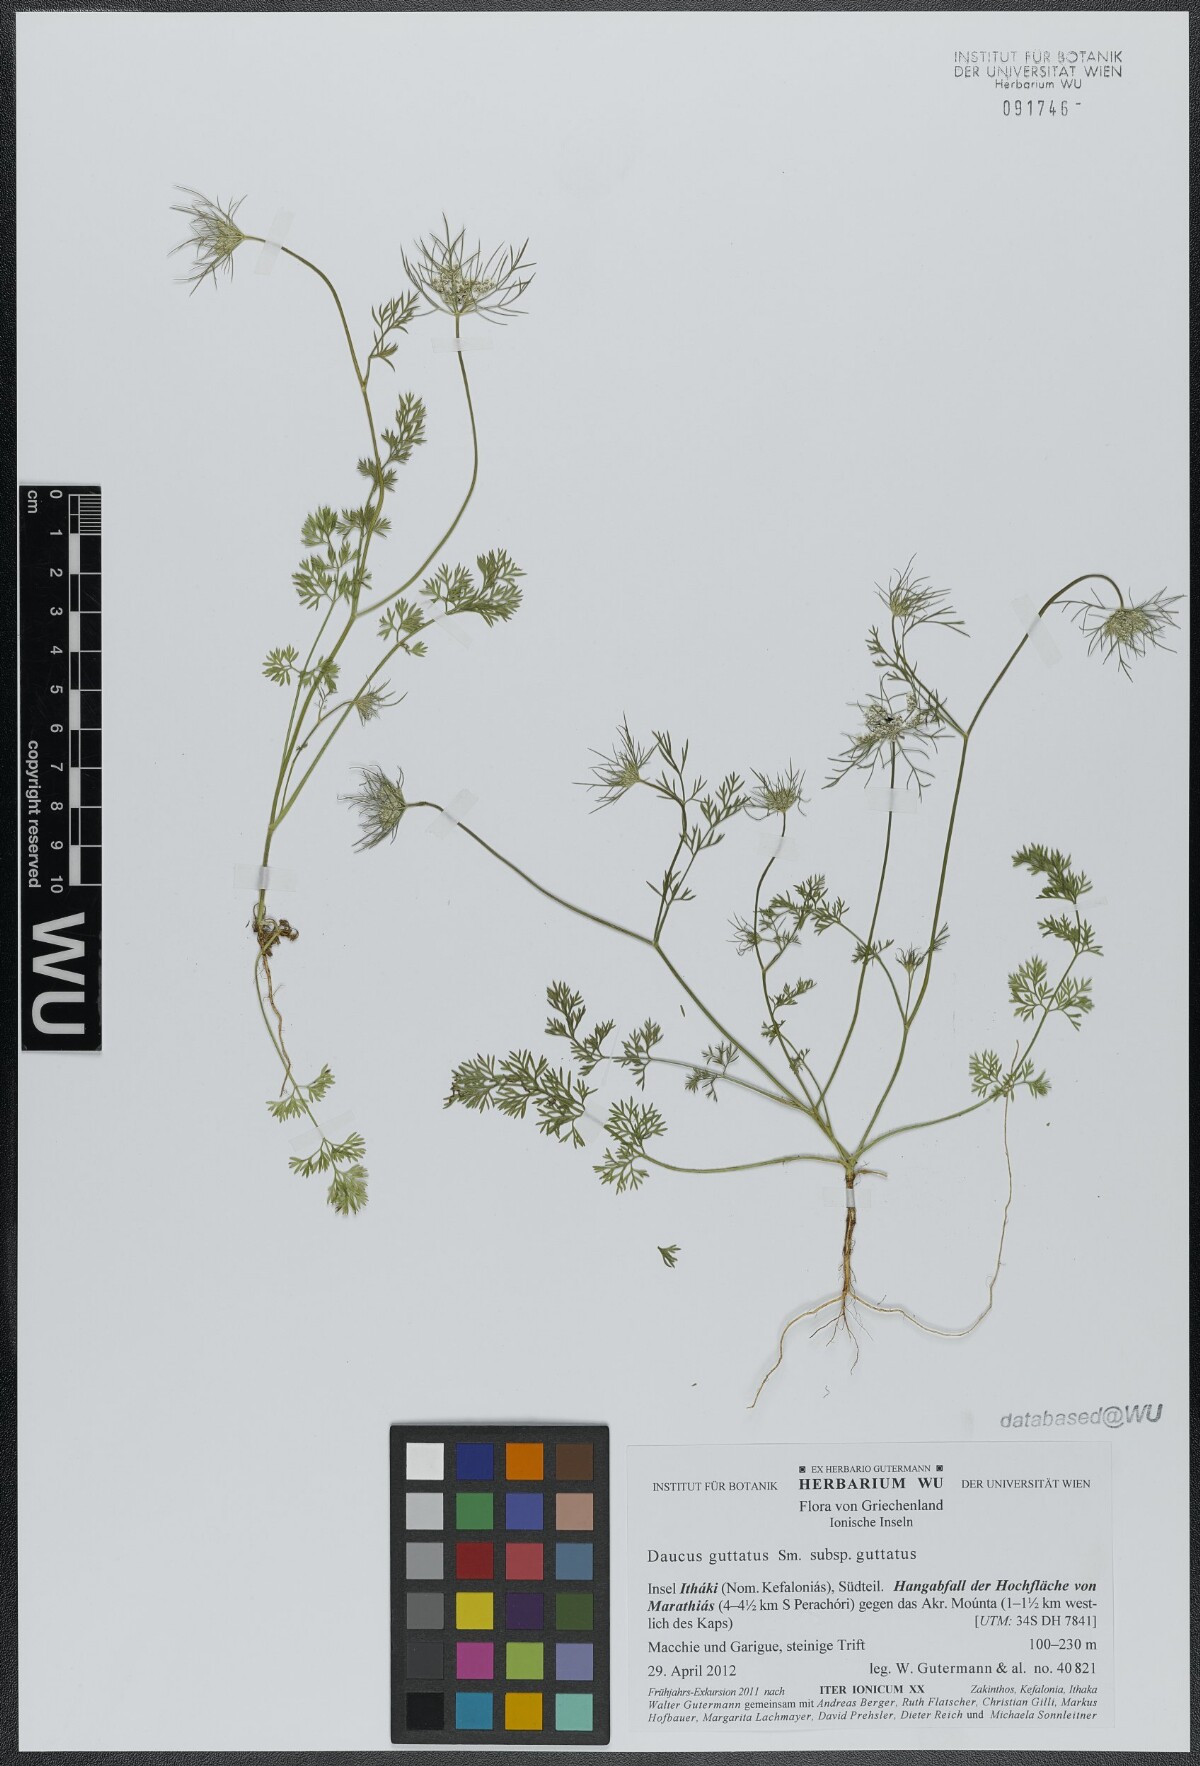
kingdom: Plantae
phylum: Tracheophyta
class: Magnoliopsida
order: Apiales
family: Apiaceae
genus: Daucus
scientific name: Daucus guttatus
